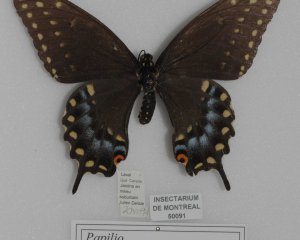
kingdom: Animalia
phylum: Arthropoda
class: Insecta
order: Lepidoptera
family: Papilionidae
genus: Papilio
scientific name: Papilio polyxenes
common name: Black Swallowtail
